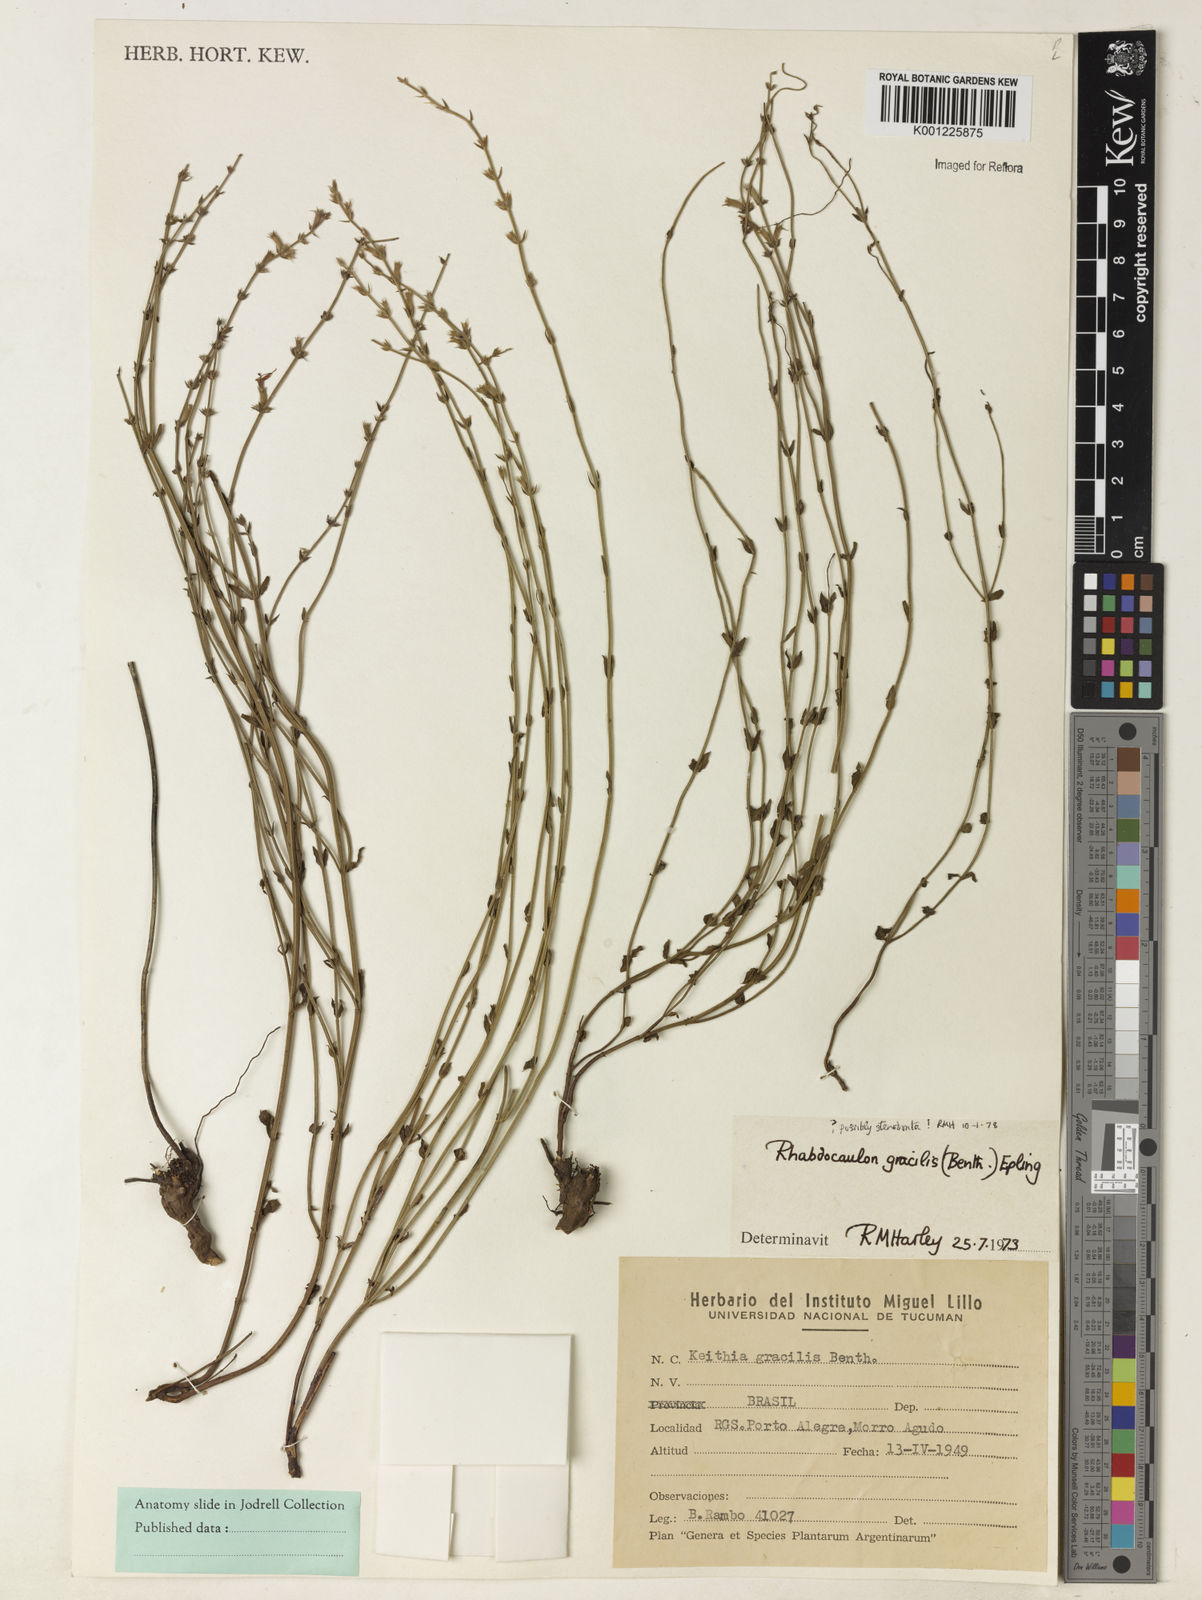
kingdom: Plantae
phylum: Tracheophyta
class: Magnoliopsida
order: Lamiales
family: Lamiaceae
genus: Rhabdocaulon
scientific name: Rhabdocaulon stenodontum
